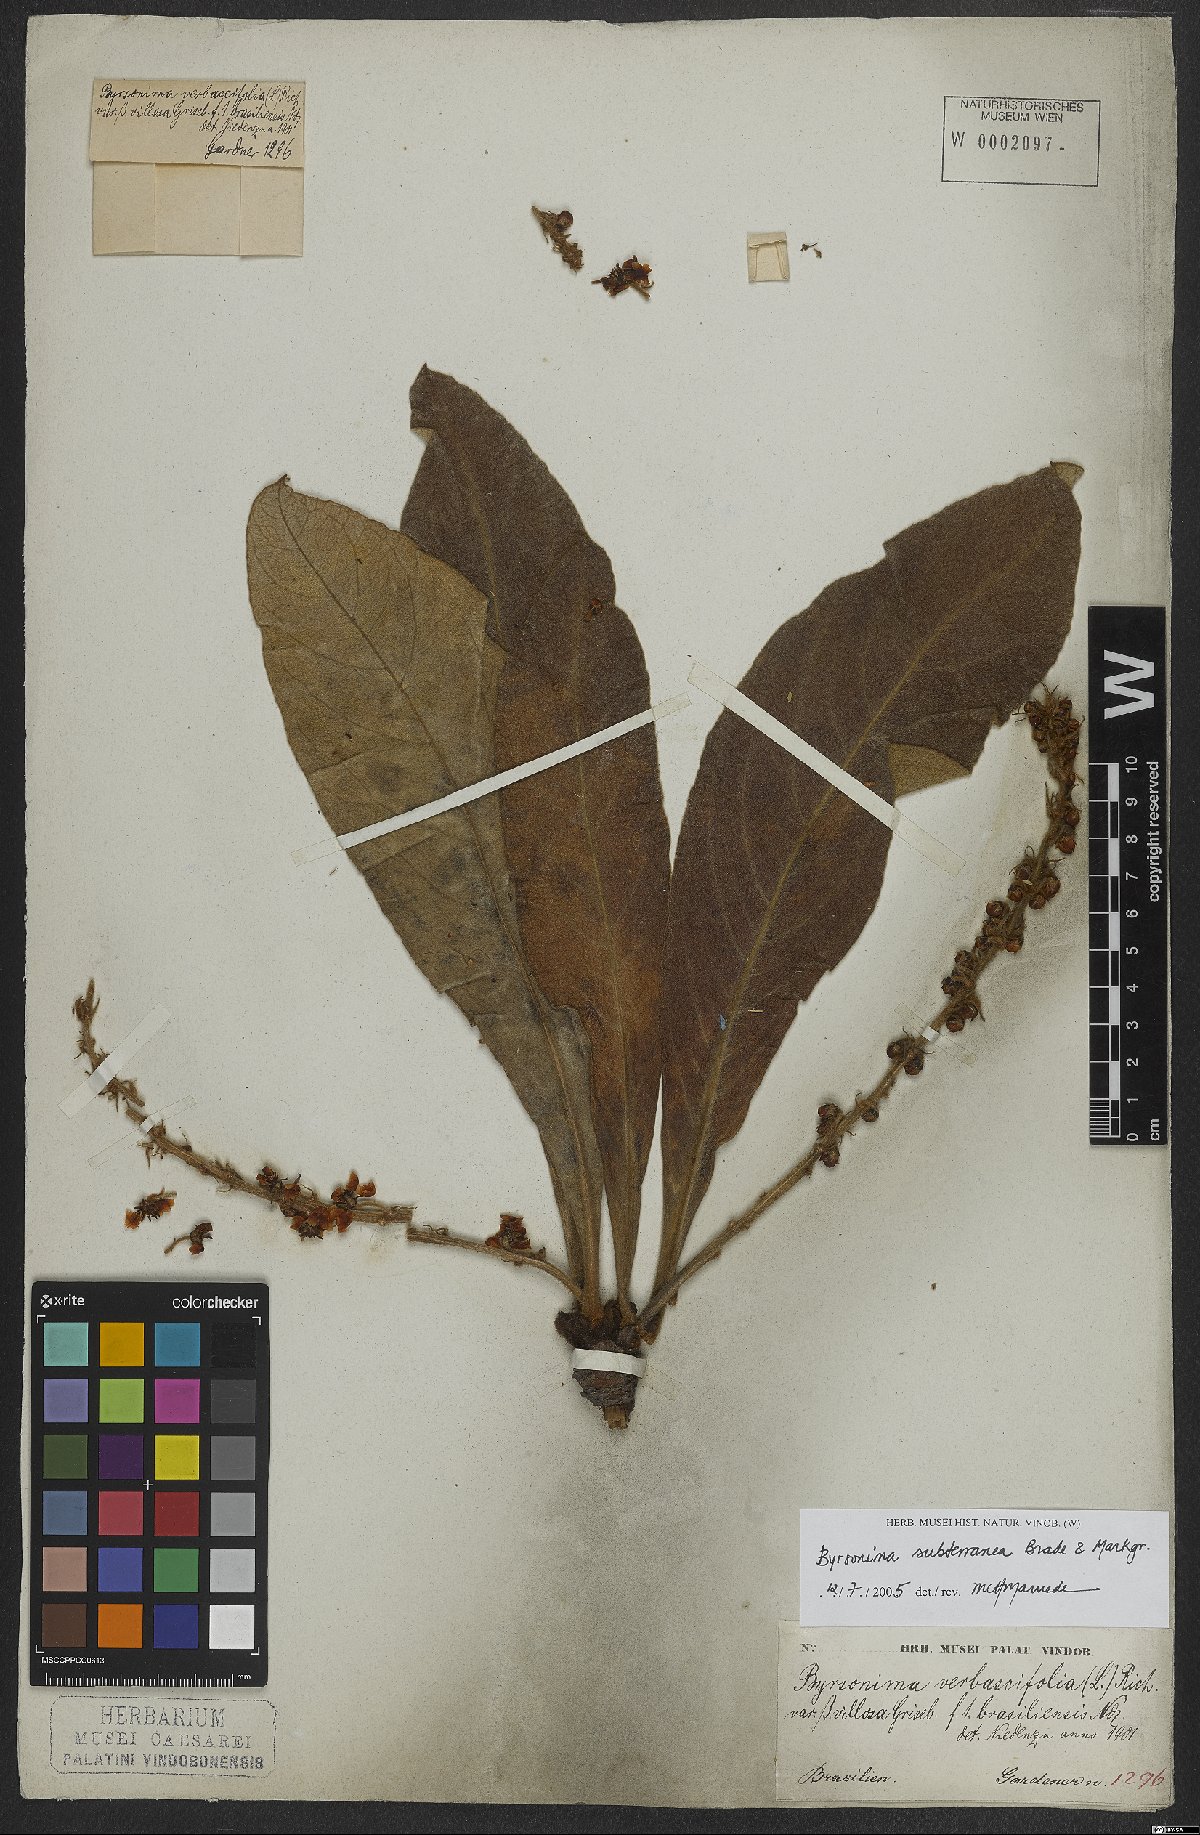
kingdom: Plantae
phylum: Tracheophyta
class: Magnoliopsida
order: Malpighiales
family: Malpighiaceae
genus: Byrsonima
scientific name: Byrsonima subterranea
